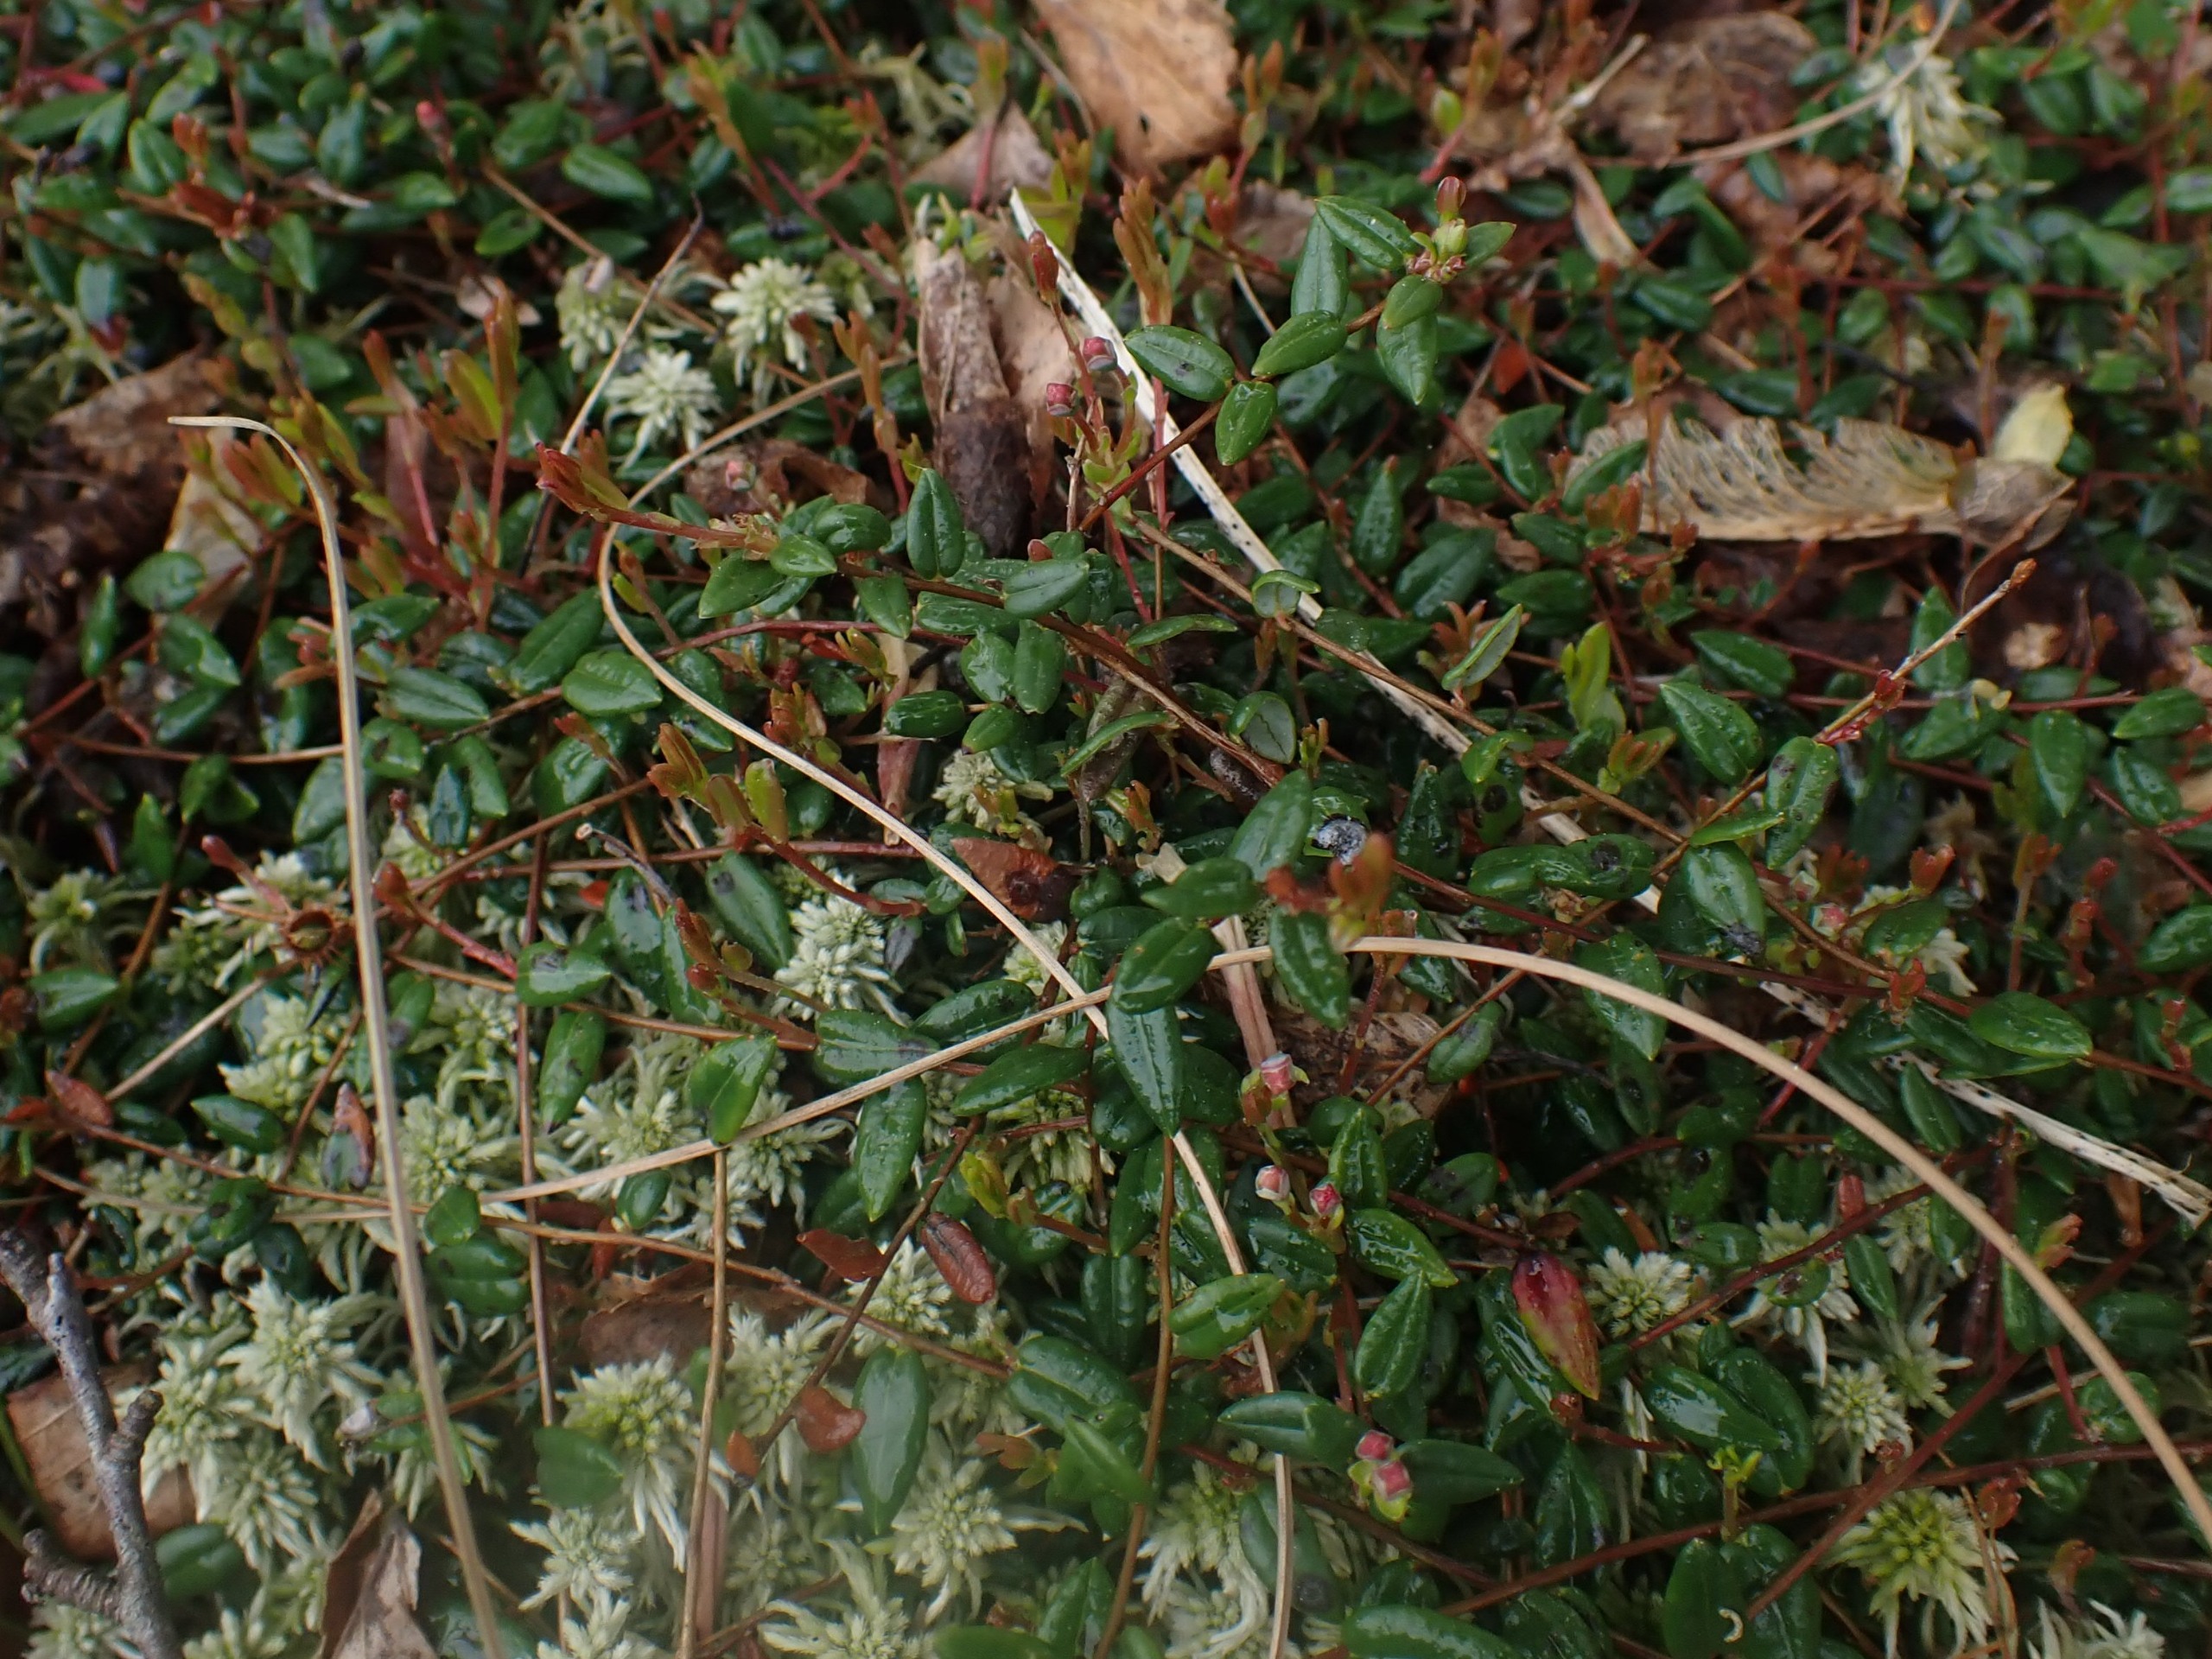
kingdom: Plantae
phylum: Tracheophyta
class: Magnoliopsida
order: Ericales
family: Ericaceae
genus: Vaccinium
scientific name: Vaccinium oxycoccos
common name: Tranebær
